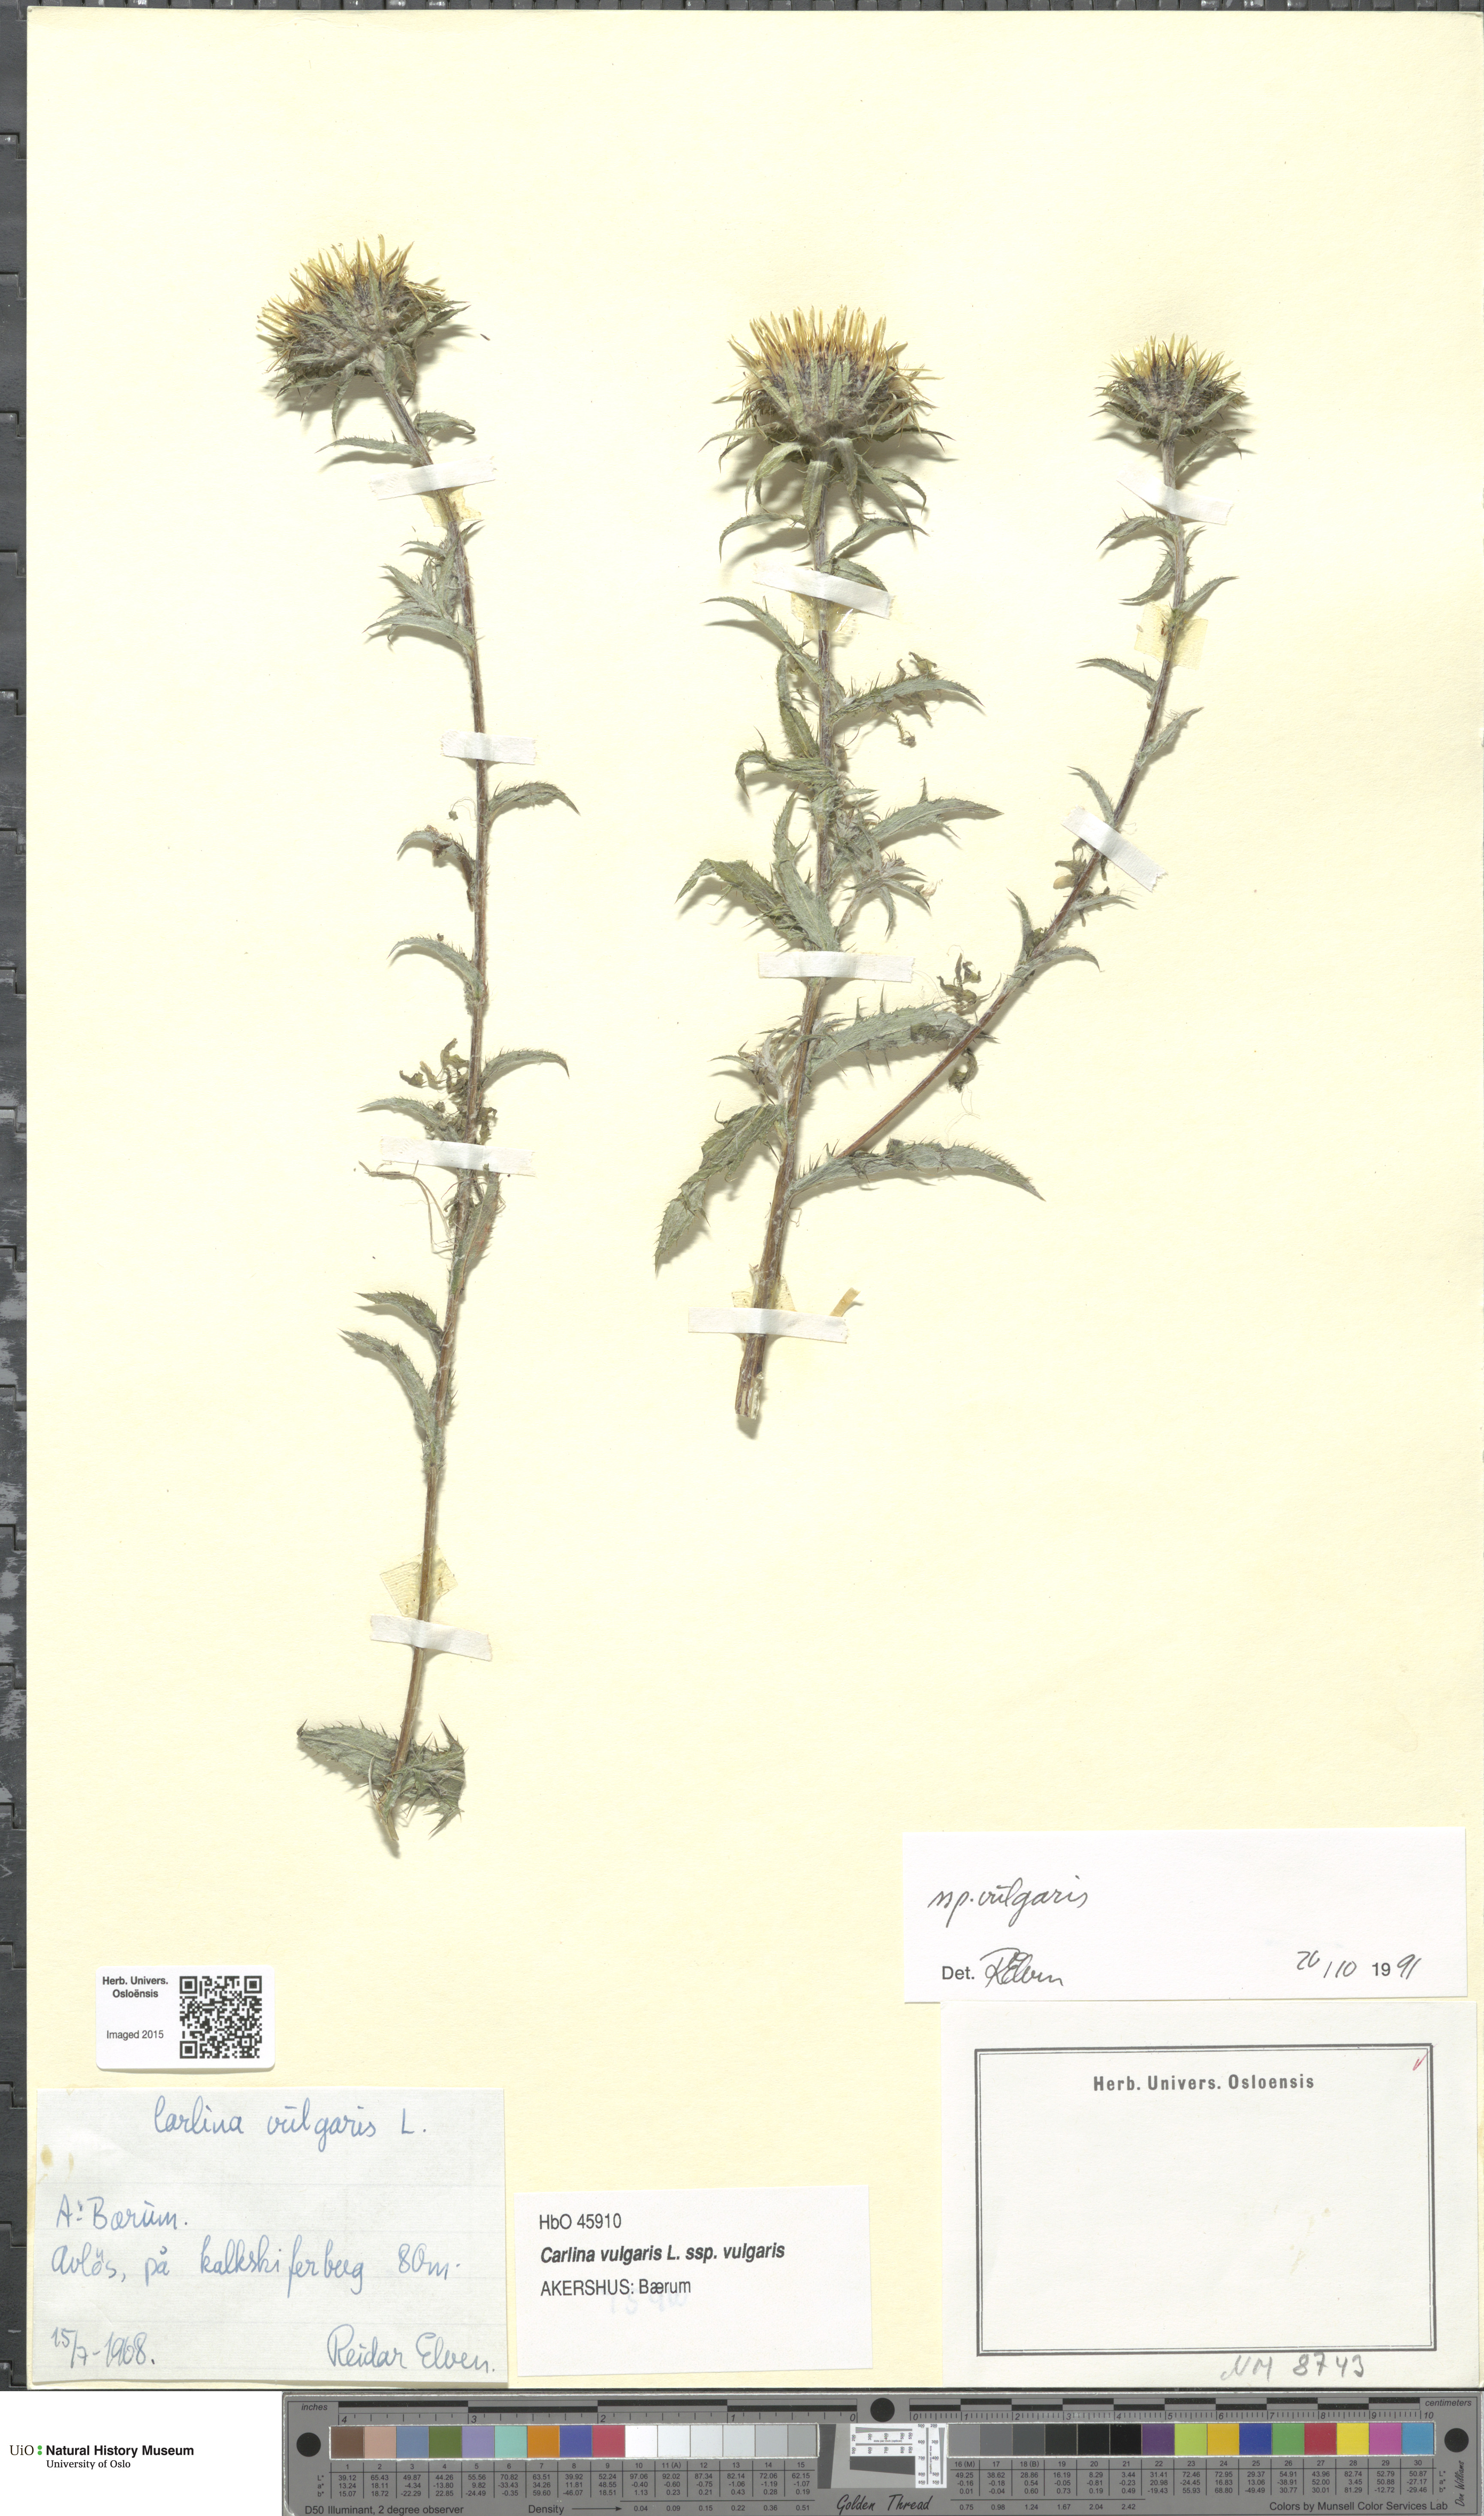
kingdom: Plantae
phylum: Tracheophyta
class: Magnoliopsida
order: Asterales
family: Asteraceae
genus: Carlina
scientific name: Carlina vulgaris
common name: Carline thistle
